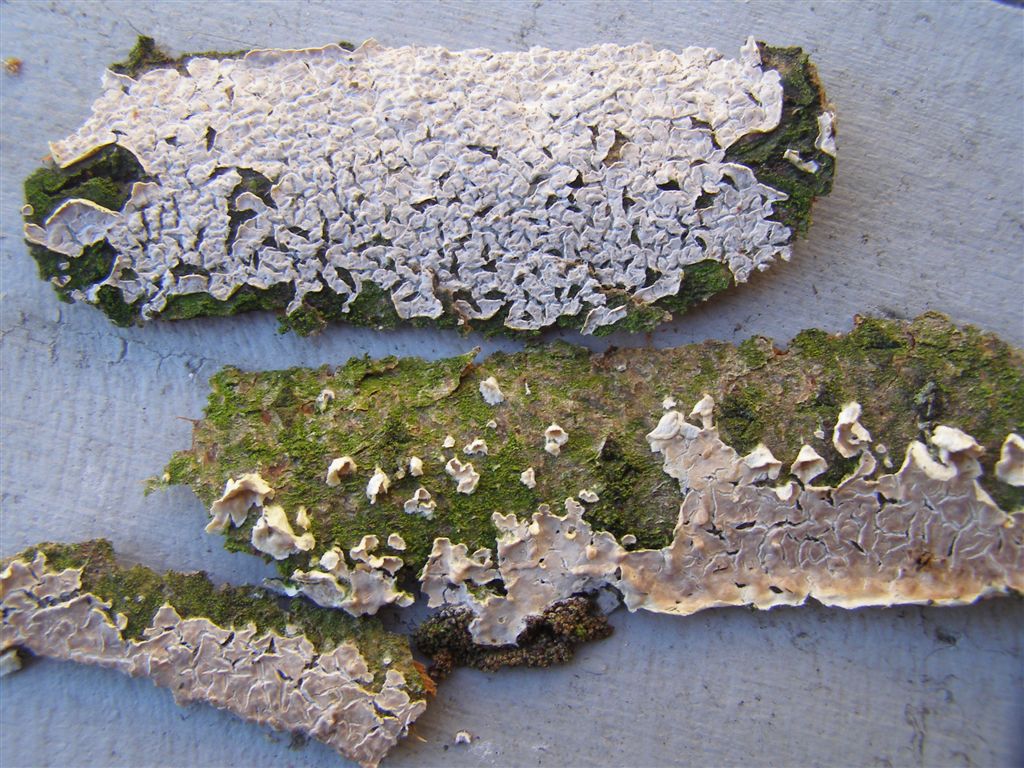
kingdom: Fungi
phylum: Basidiomycota
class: Agaricomycetes
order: Agaricales
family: Physalacriaceae
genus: Cylindrobasidium
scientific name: Cylindrobasidium evolvens
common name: sprækkehinde
